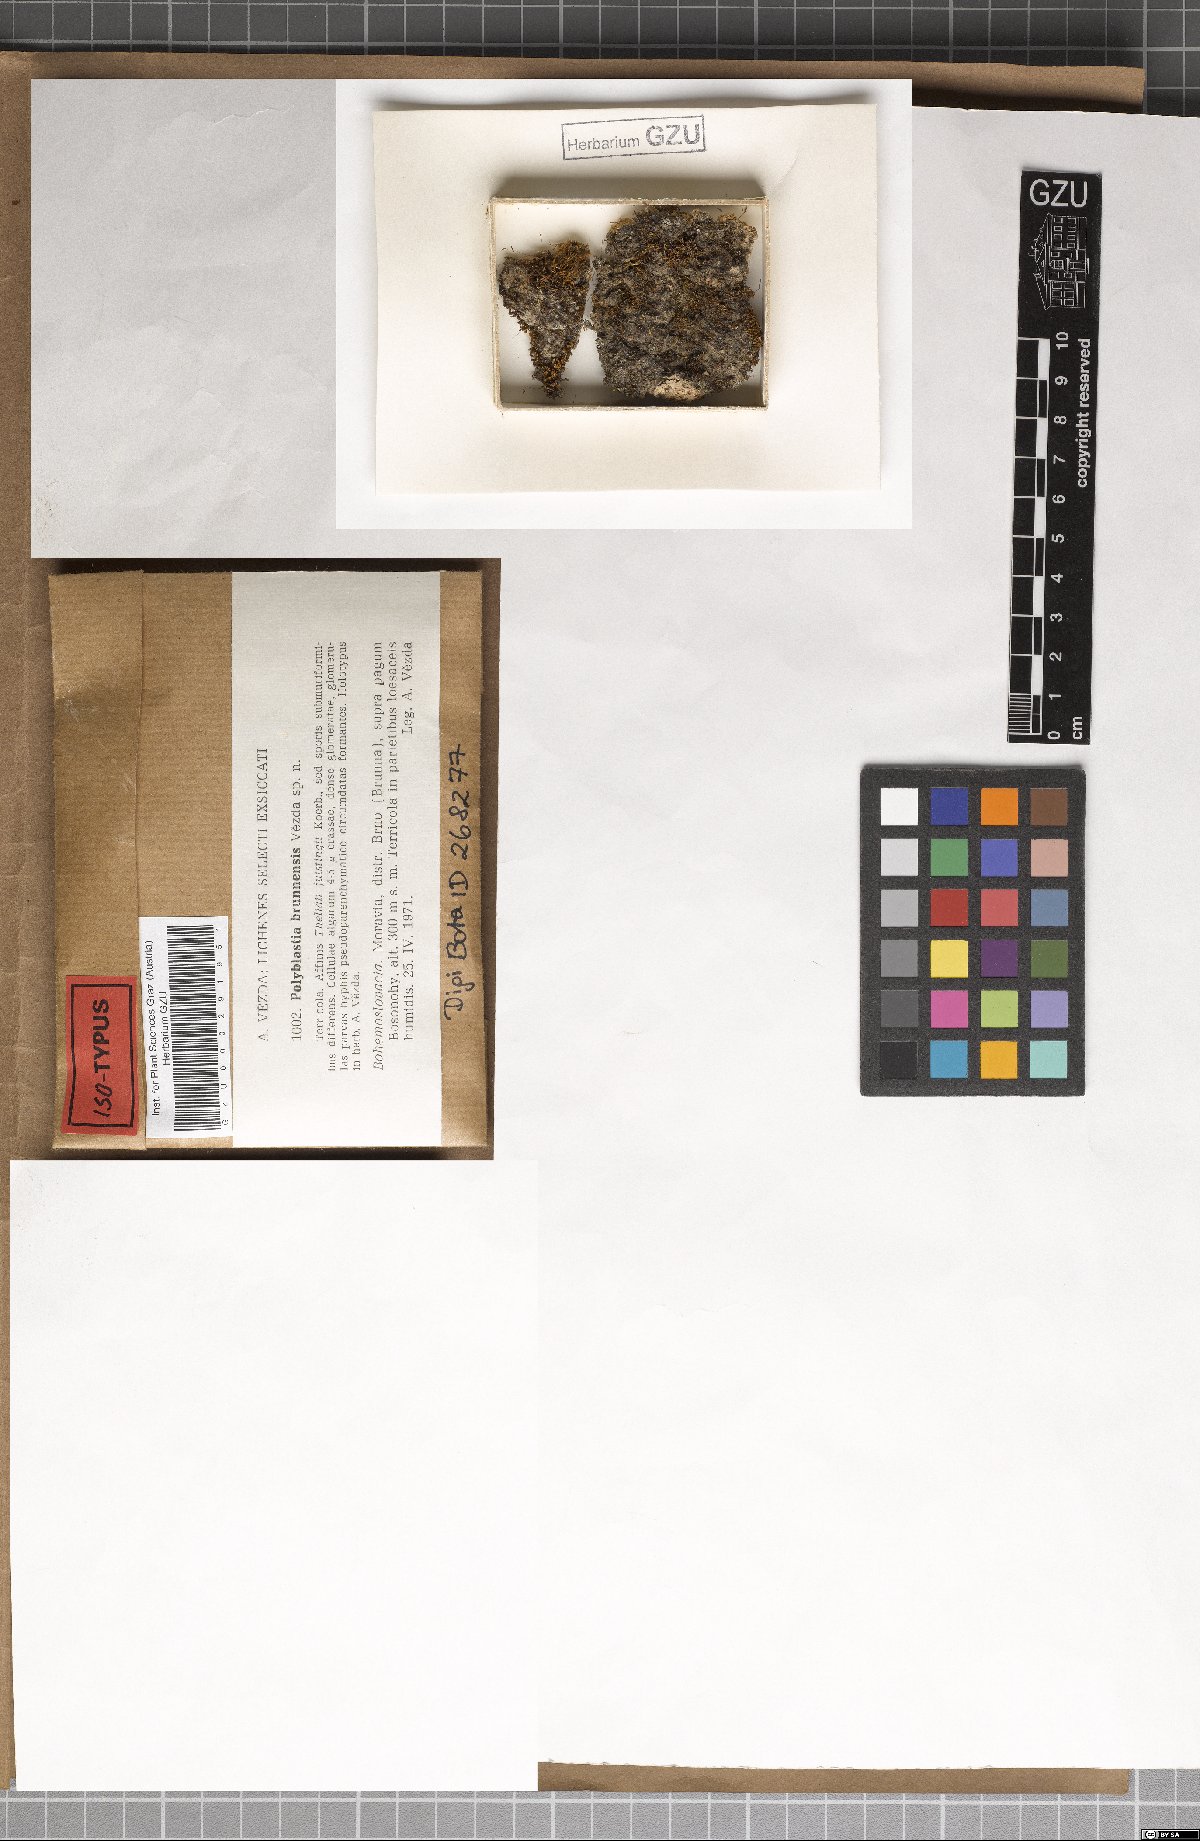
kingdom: Fungi
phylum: Ascomycota
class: Eurotiomycetes
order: Verrucariales
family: Verrucariaceae
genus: Polyblastia
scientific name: Polyblastia
